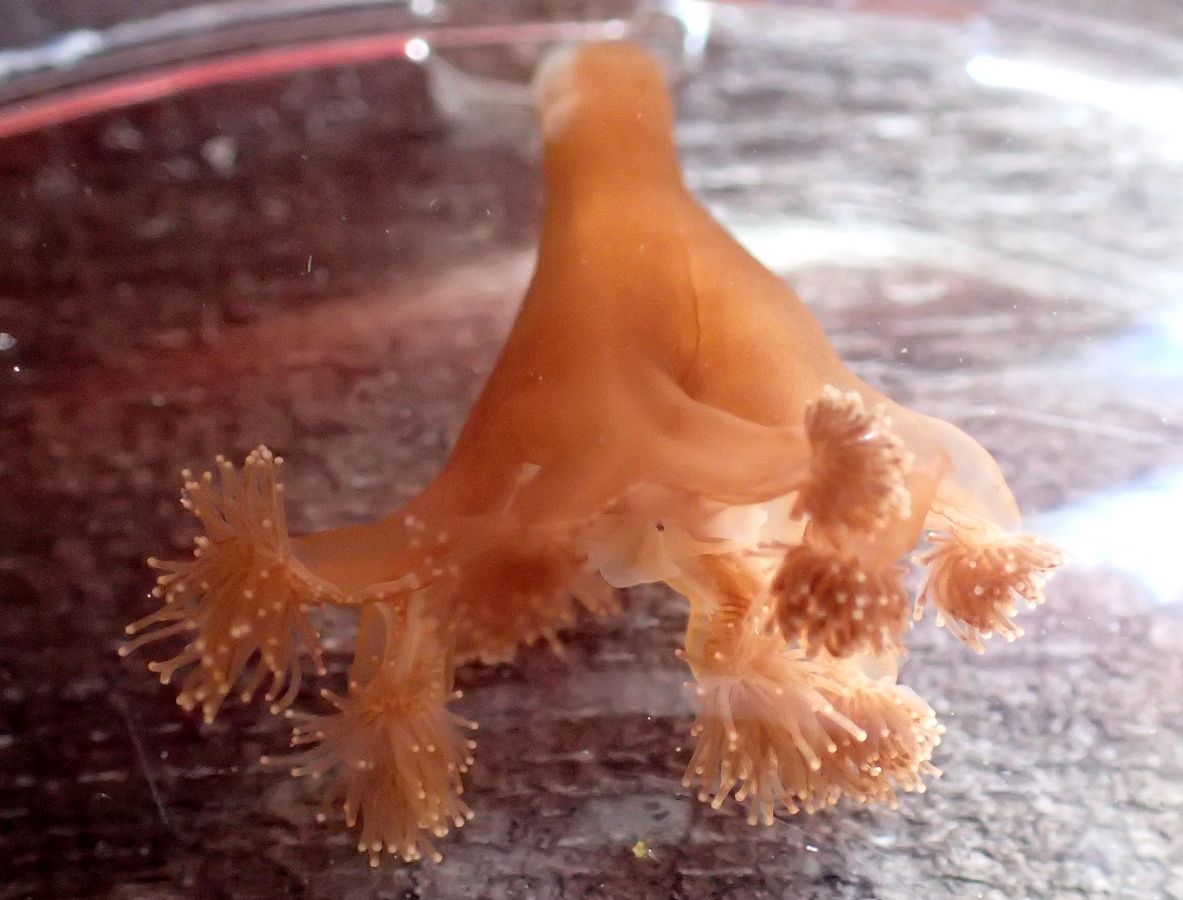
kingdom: Animalia
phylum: Cnidaria
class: Staurozoa
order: Stauromedusae
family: Lucernariidae
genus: Lucernaria
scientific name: Lucernaria quadricornis
